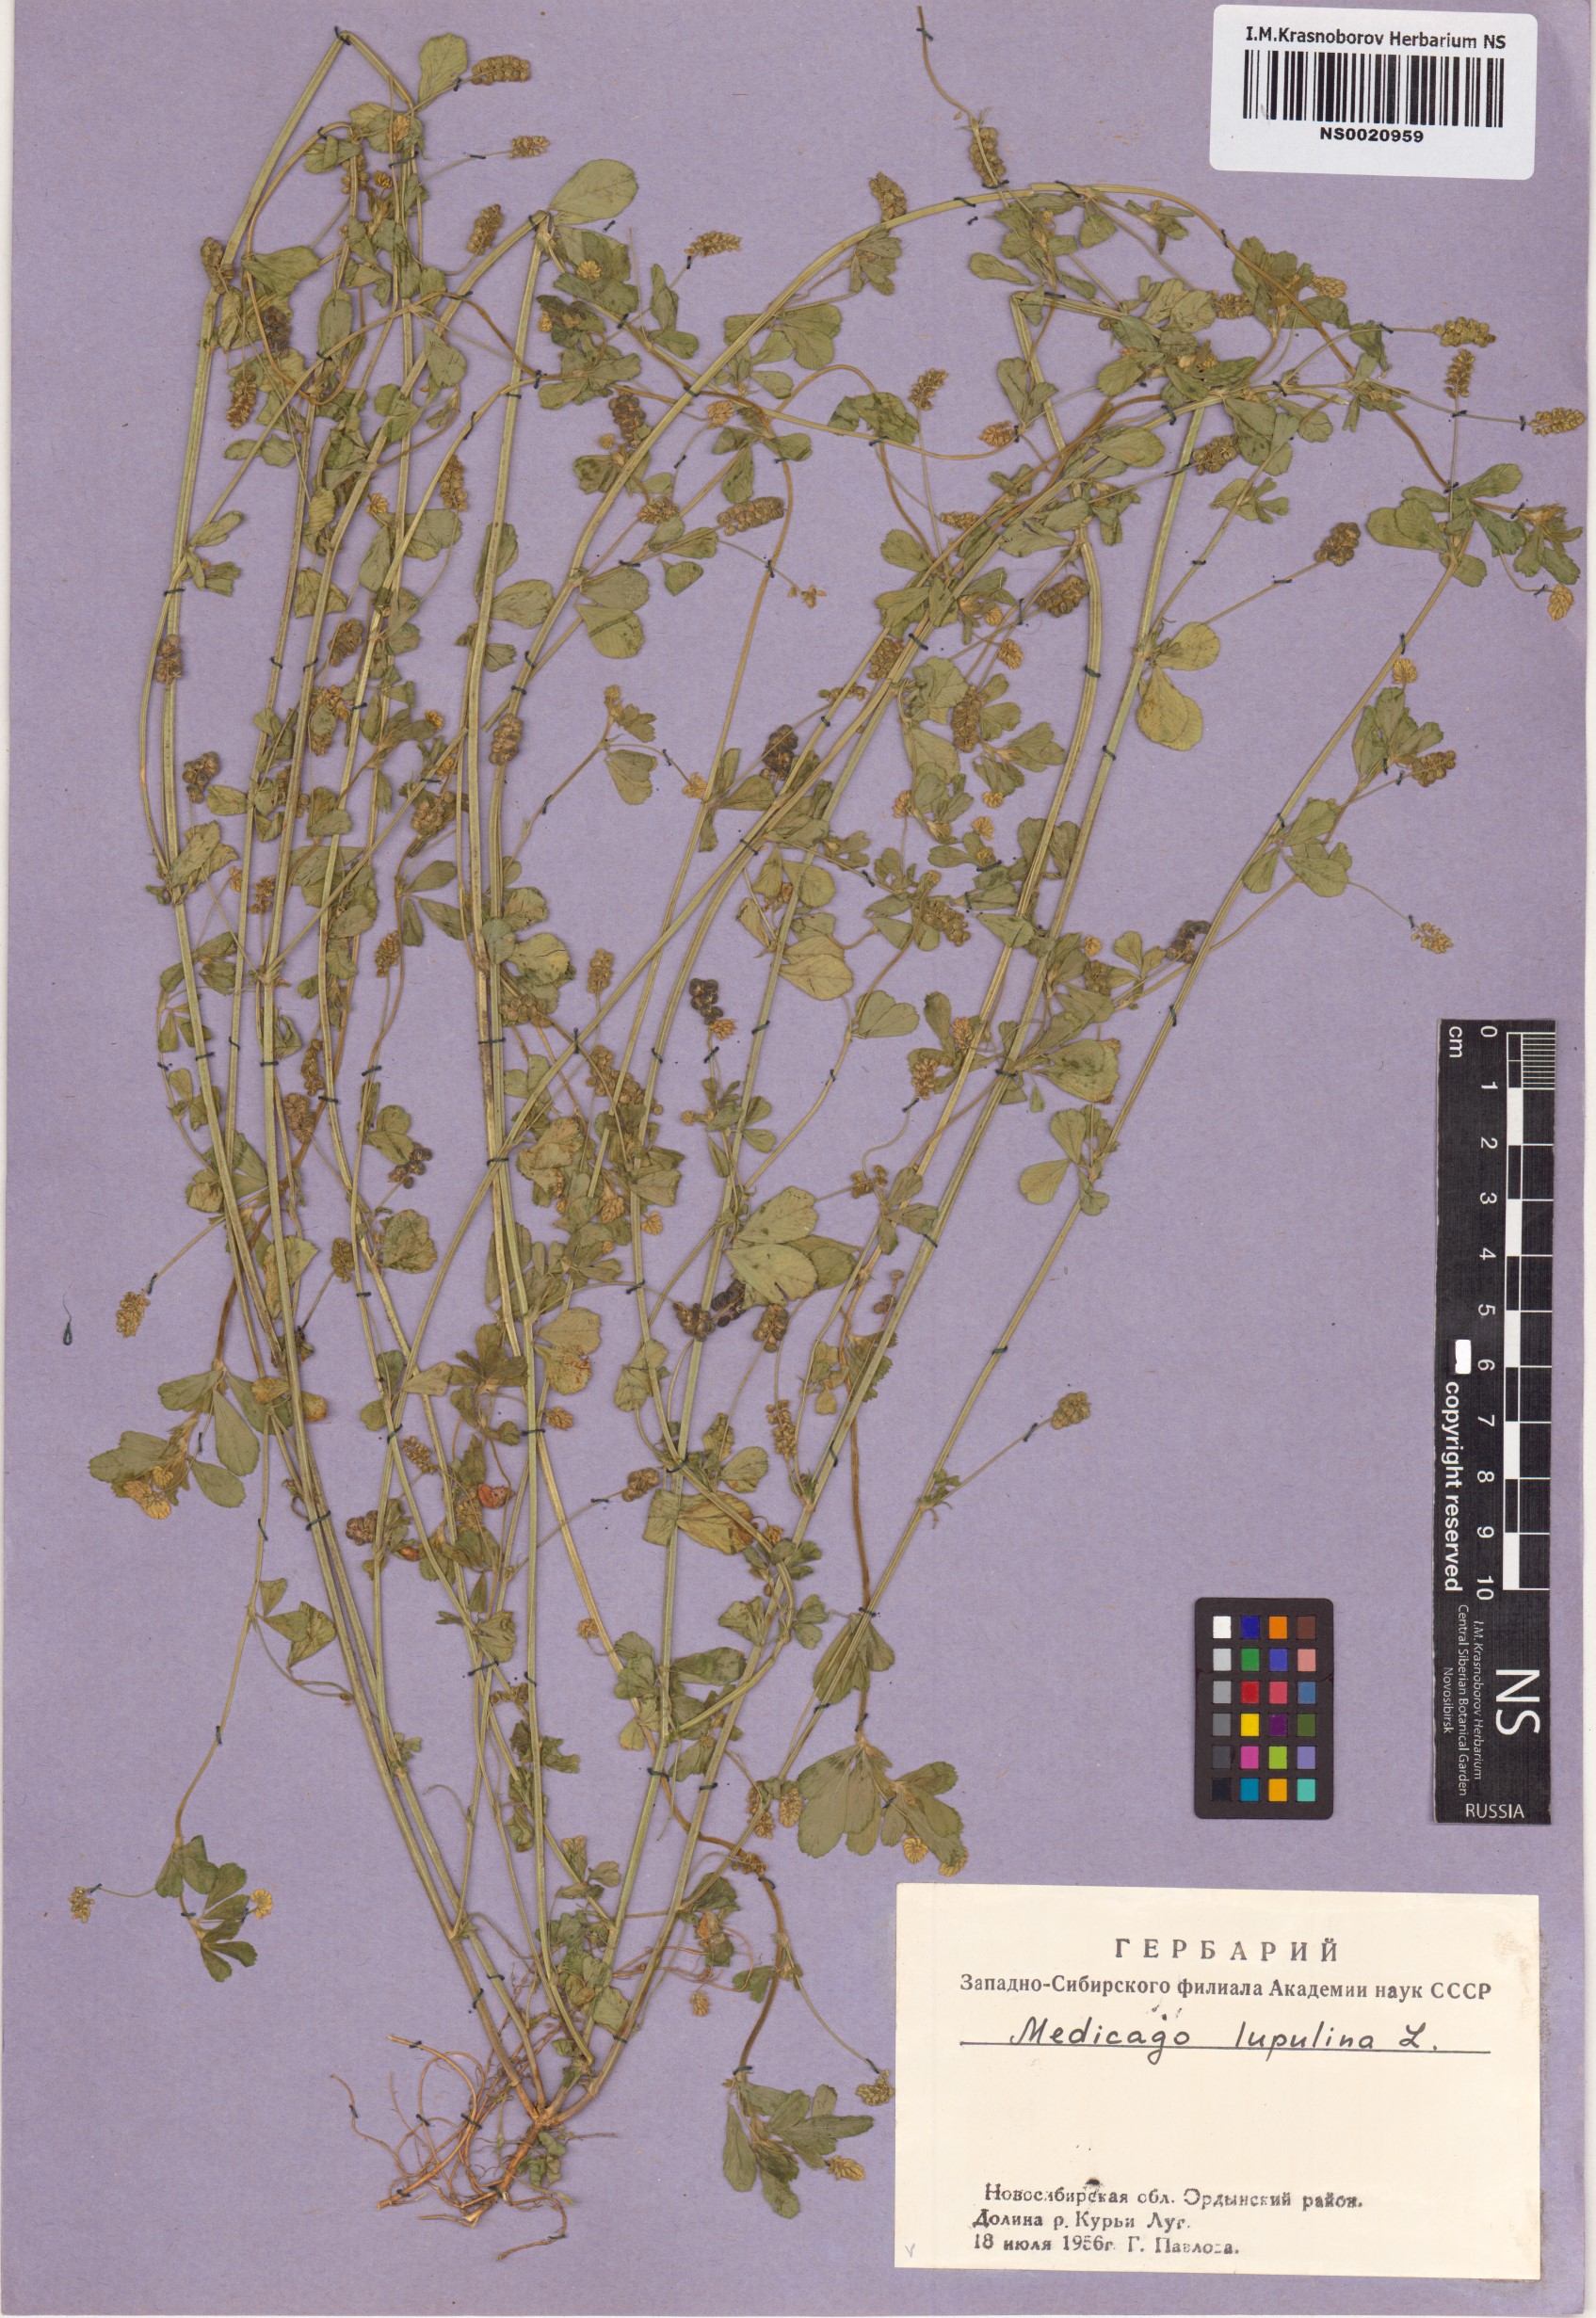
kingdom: Plantae
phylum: Tracheophyta
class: Magnoliopsida
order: Fabales
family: Fabaceae
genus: Medicago
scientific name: Medicago lupulina
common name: Black medick
